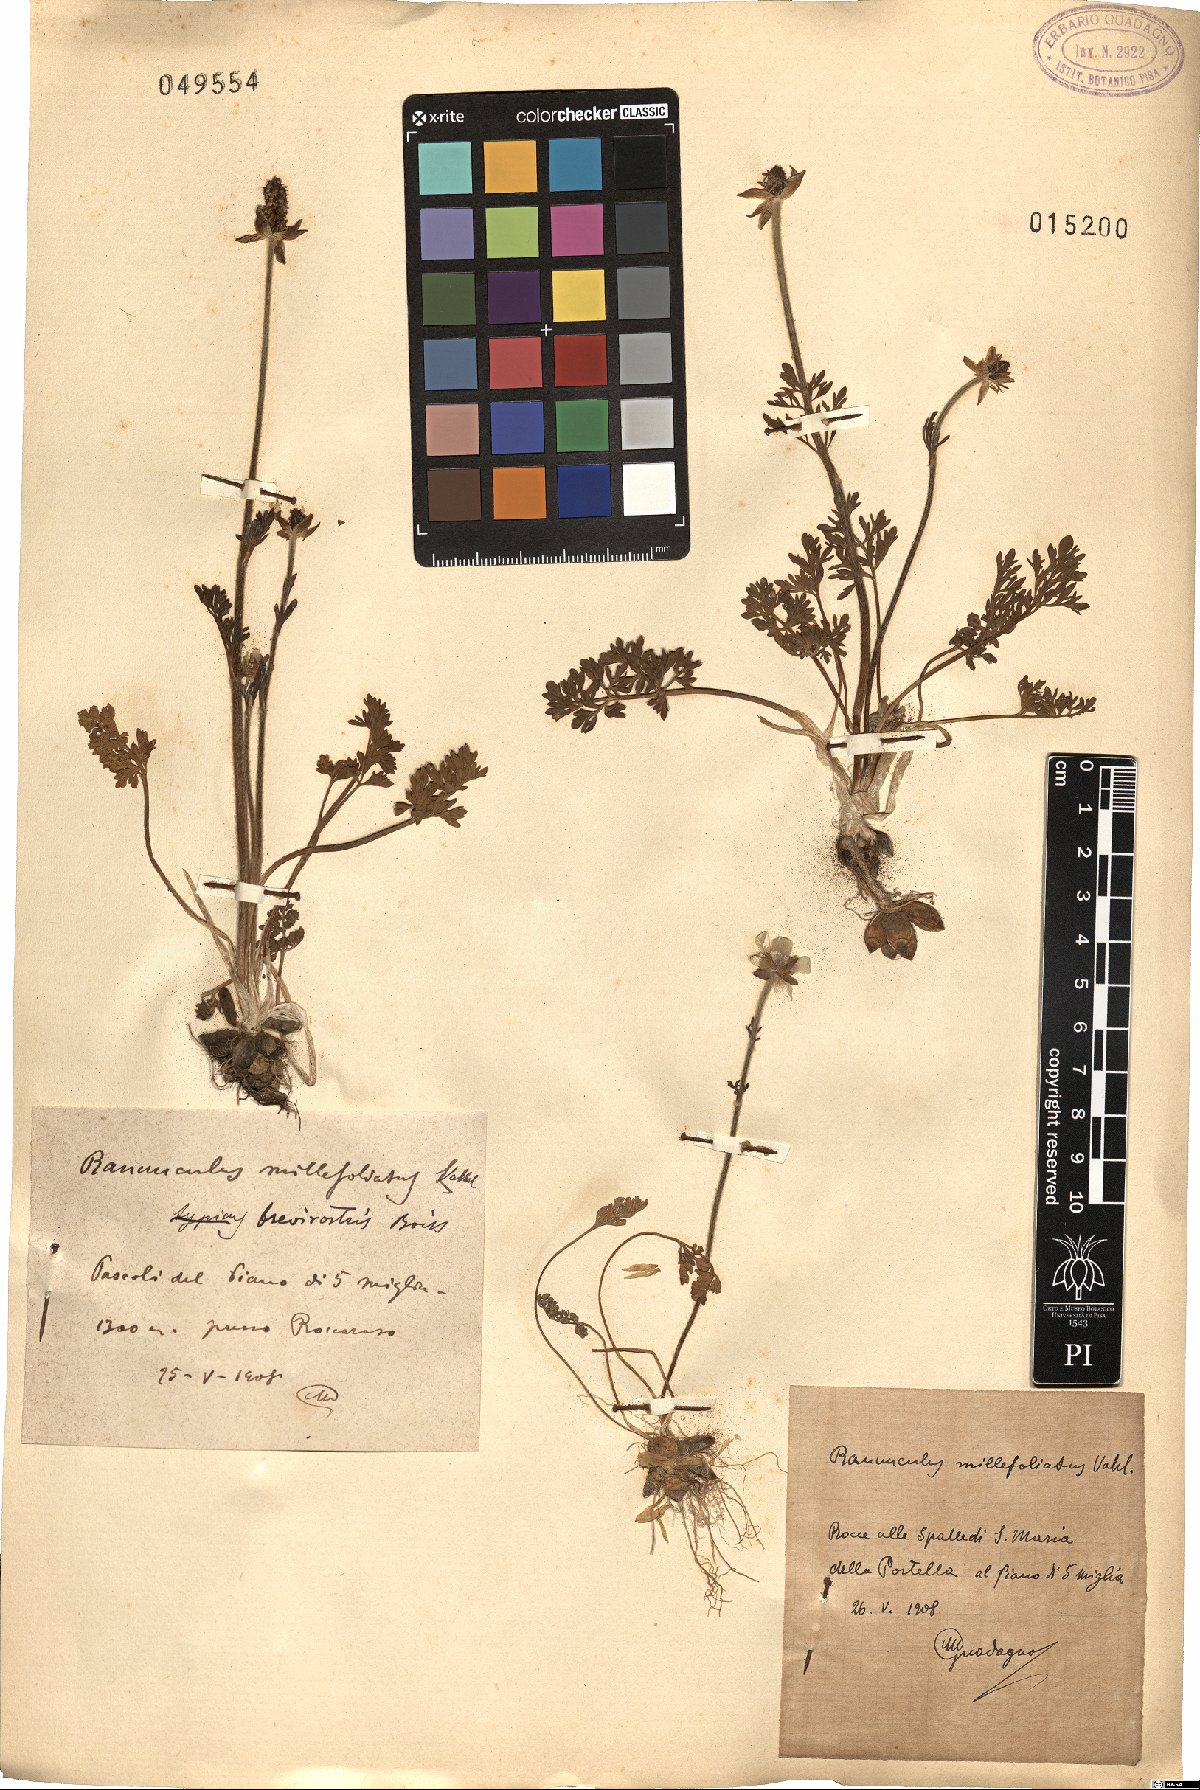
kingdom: Plantae
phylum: Tracheophyta
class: Magnoliopsida
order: Ranunculales
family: Ranunculaceae
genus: Ranunculus
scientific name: Ranunculus millefoliatus
